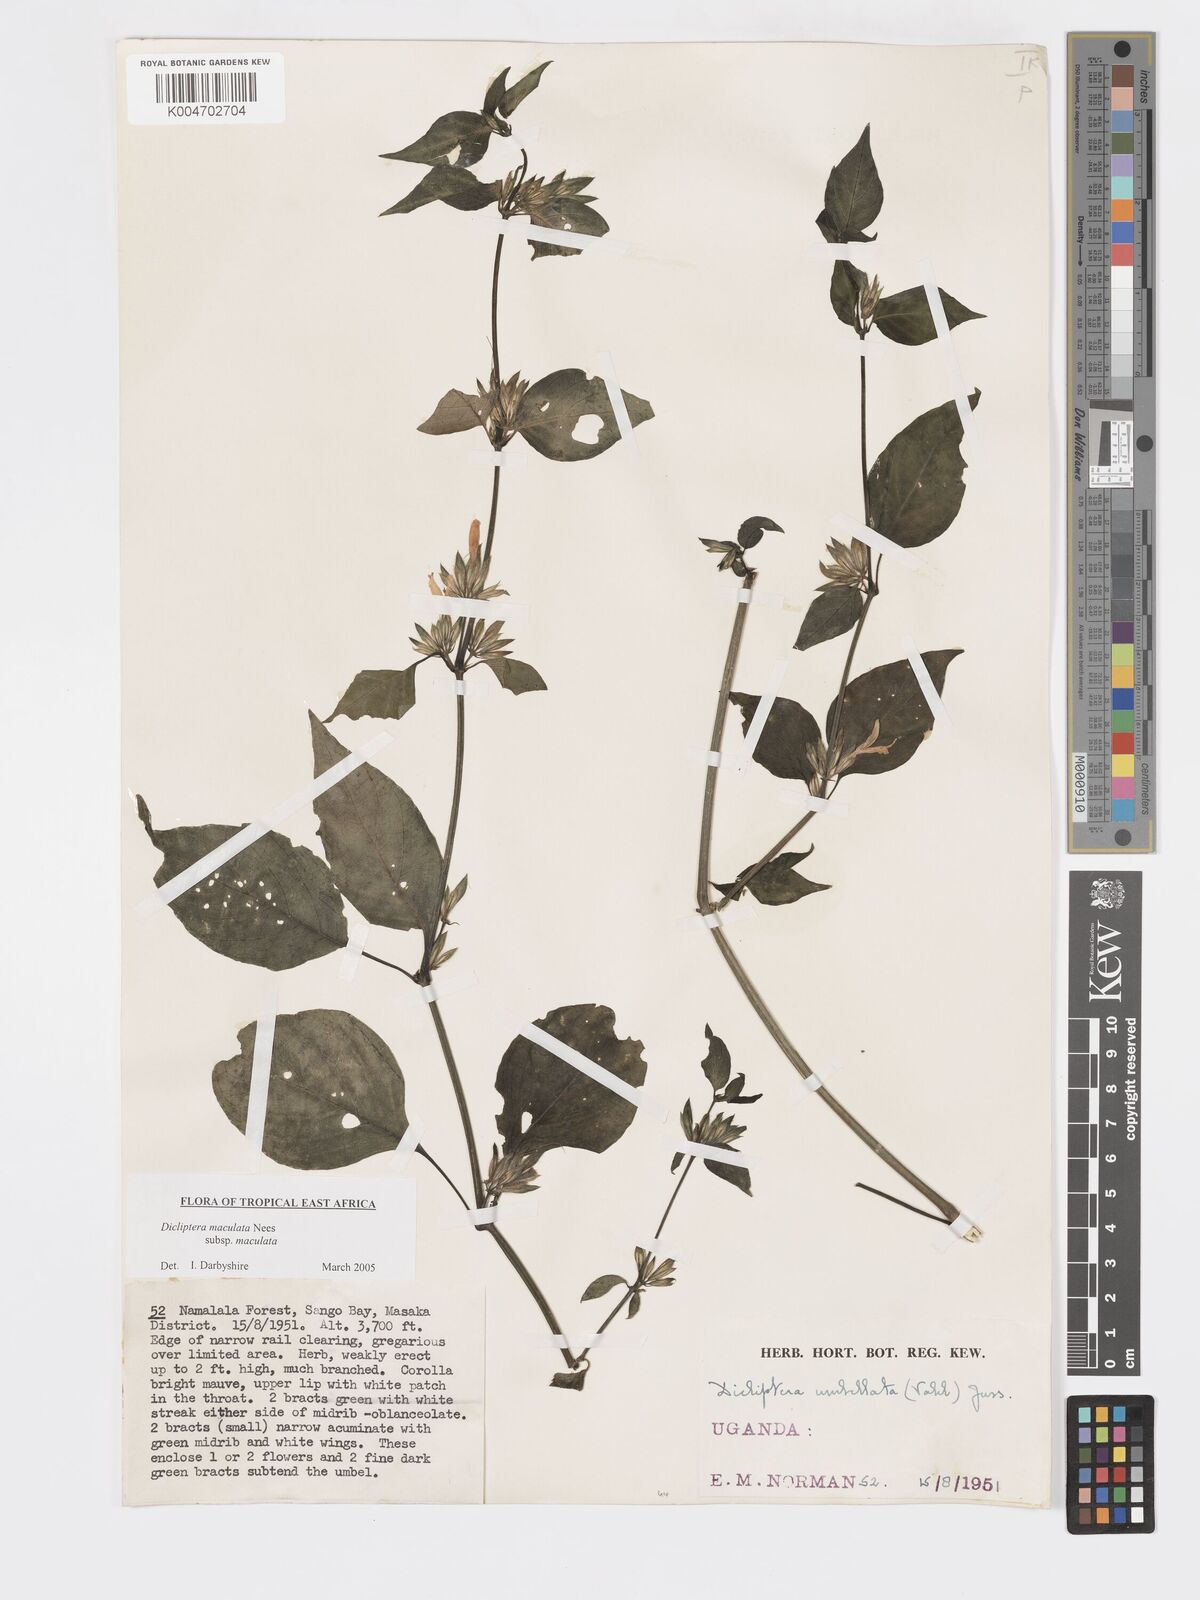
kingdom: Plantae
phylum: Tracheophyta
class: Magnoliopsida
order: Lamiales
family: Acanthaceae
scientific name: Acanthaceae
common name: Acanthaceae
